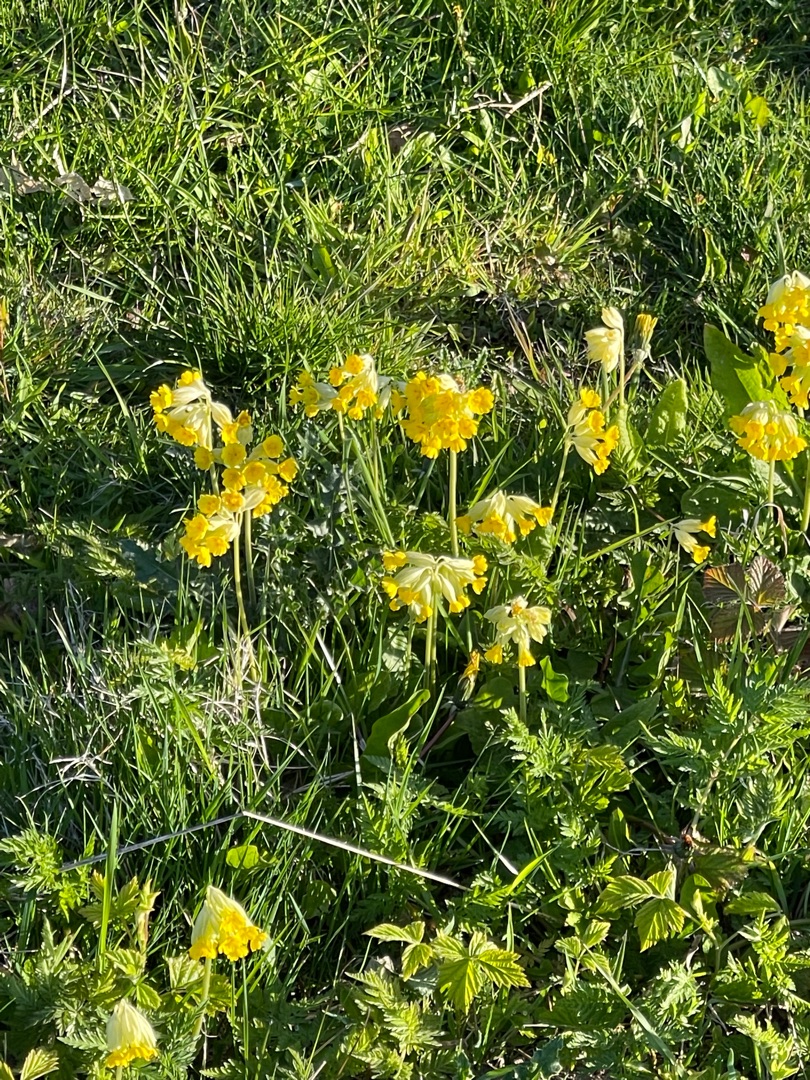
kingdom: Plantae
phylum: Tracheophyta
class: Magnoliopsida
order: Ericales
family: Primulaceae
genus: Primula
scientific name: Primula veris
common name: Hulkravet kodriver
